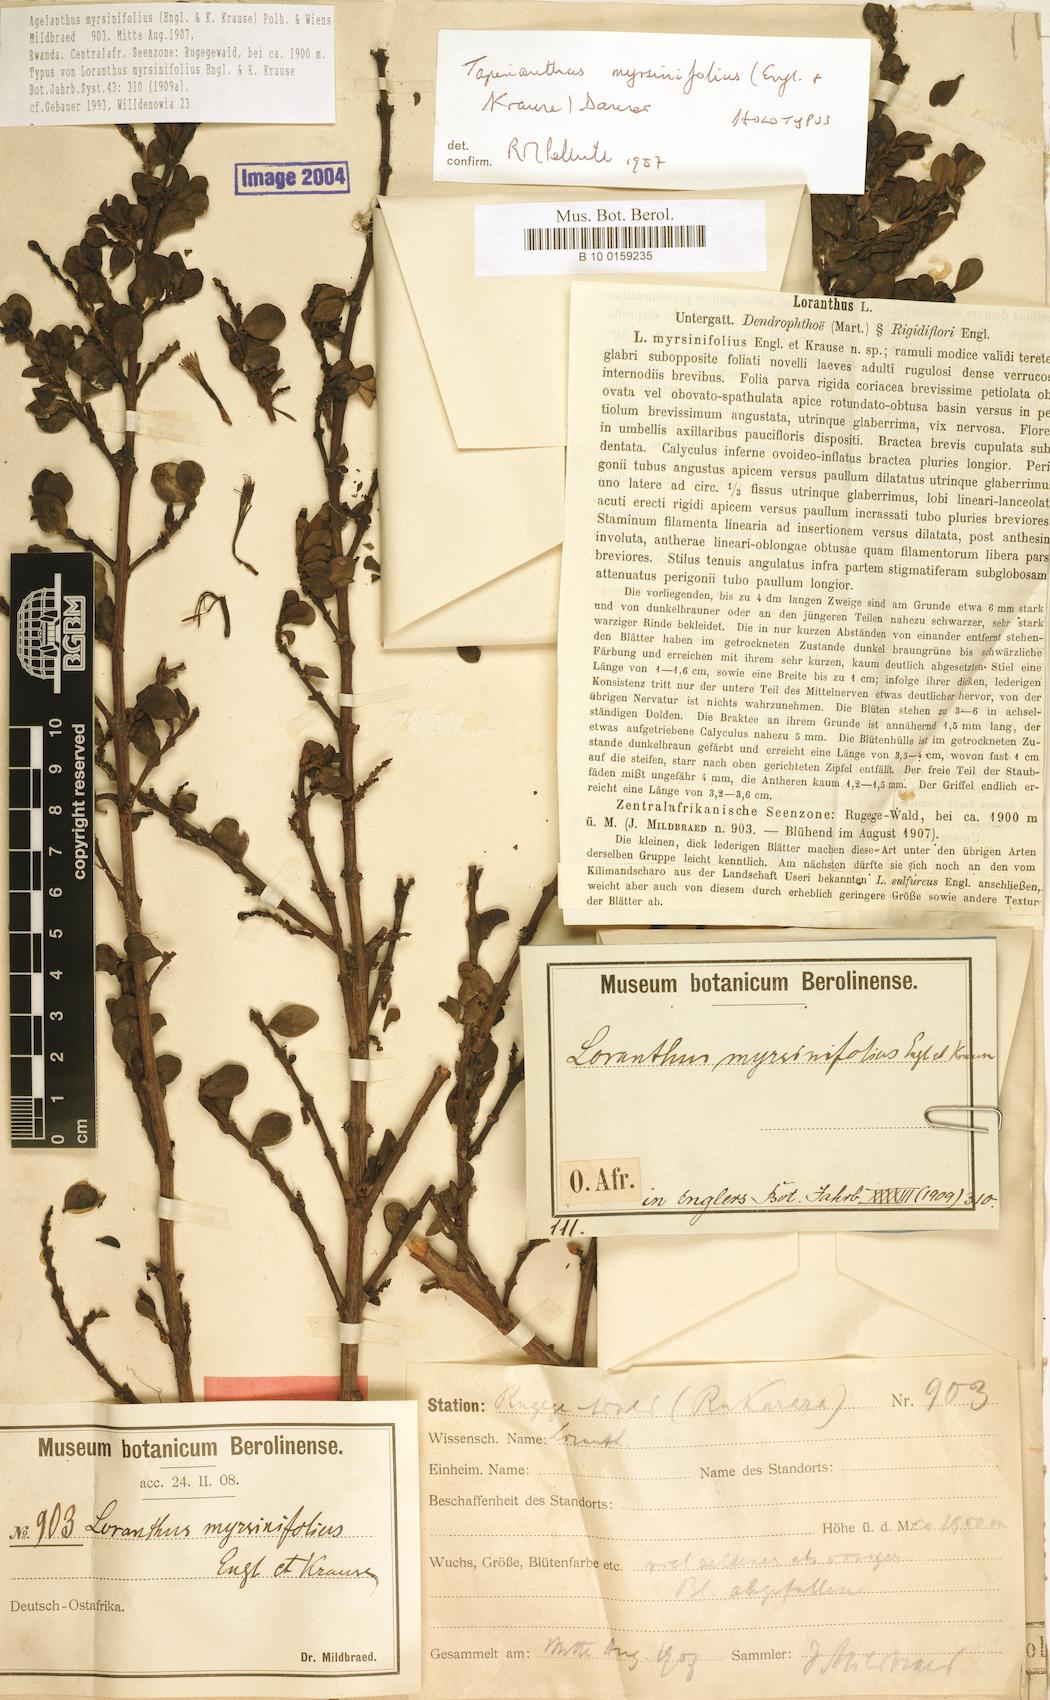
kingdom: Plantae
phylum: Tracheophyta
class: Magnoliopsida
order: Santalales
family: Loranthaceae
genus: Agelanthus
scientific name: Agelanthus myrsinifolius
